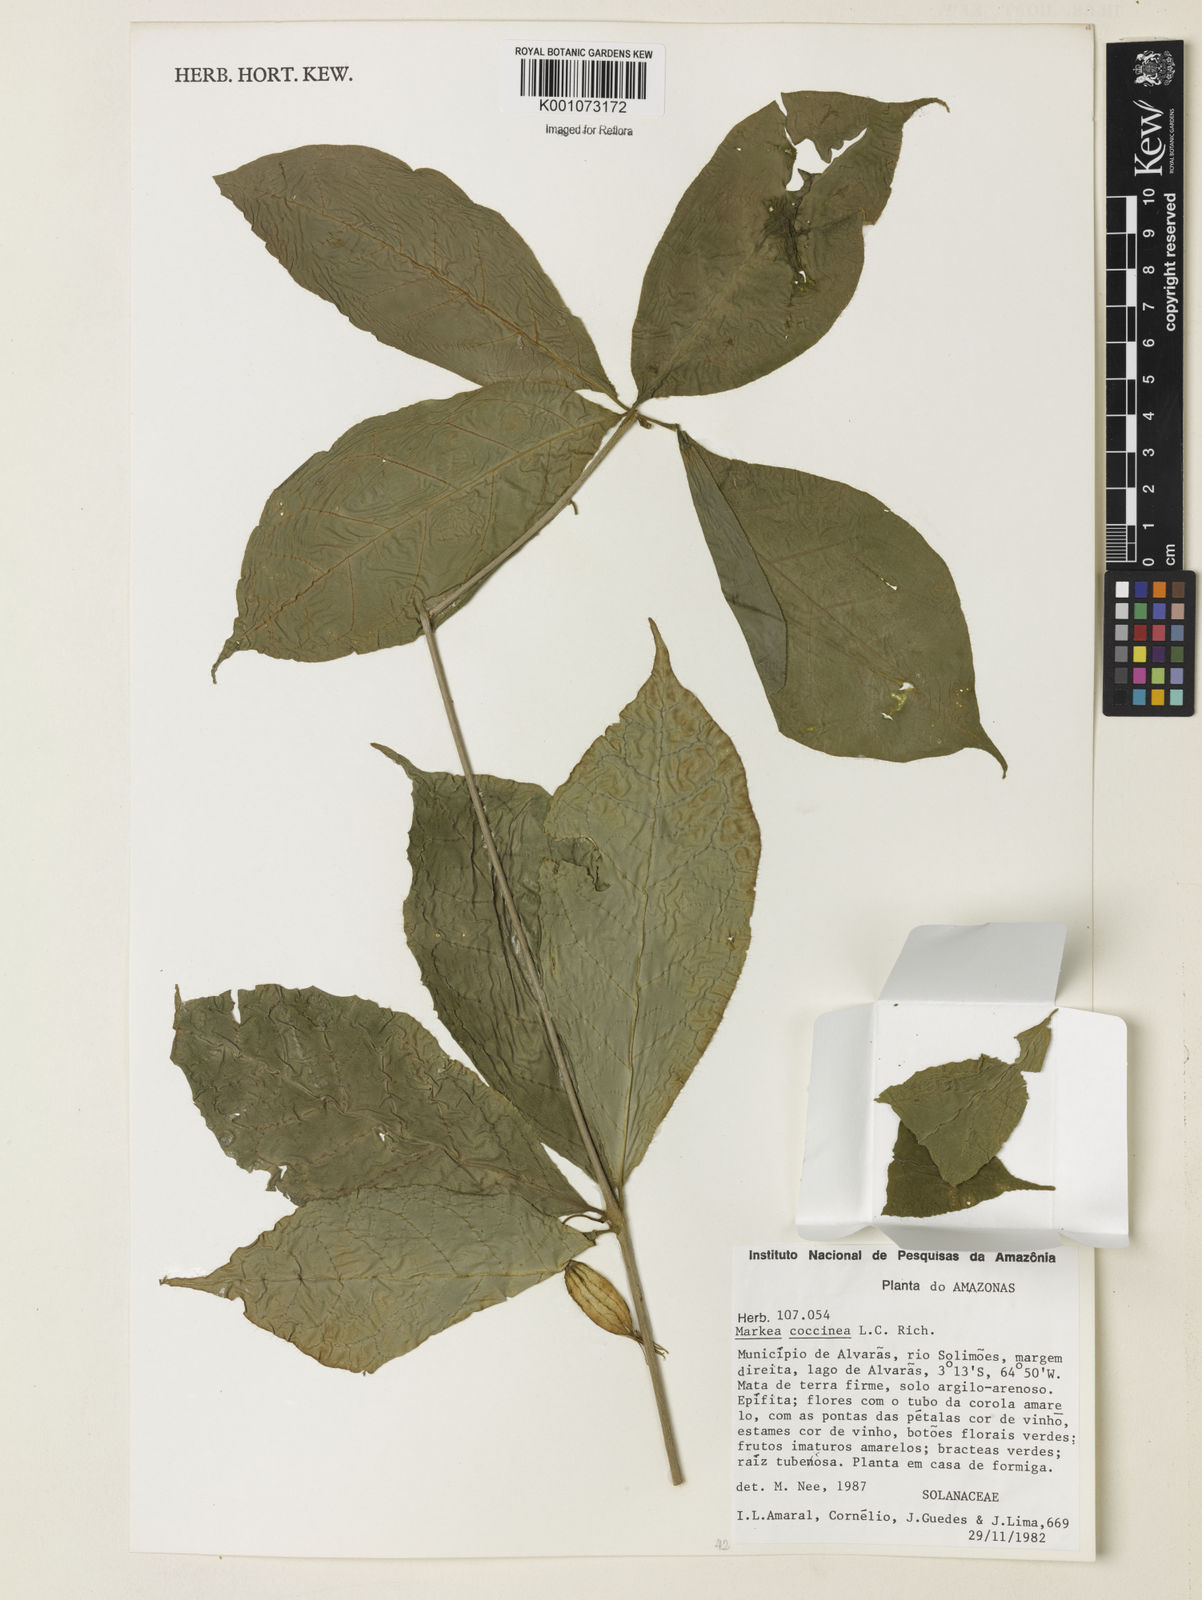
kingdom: Plantae
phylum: Tracheophyta
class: Magnoliopsida
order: Solanales
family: Solanaceae
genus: Markea
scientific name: Markea formicarum
